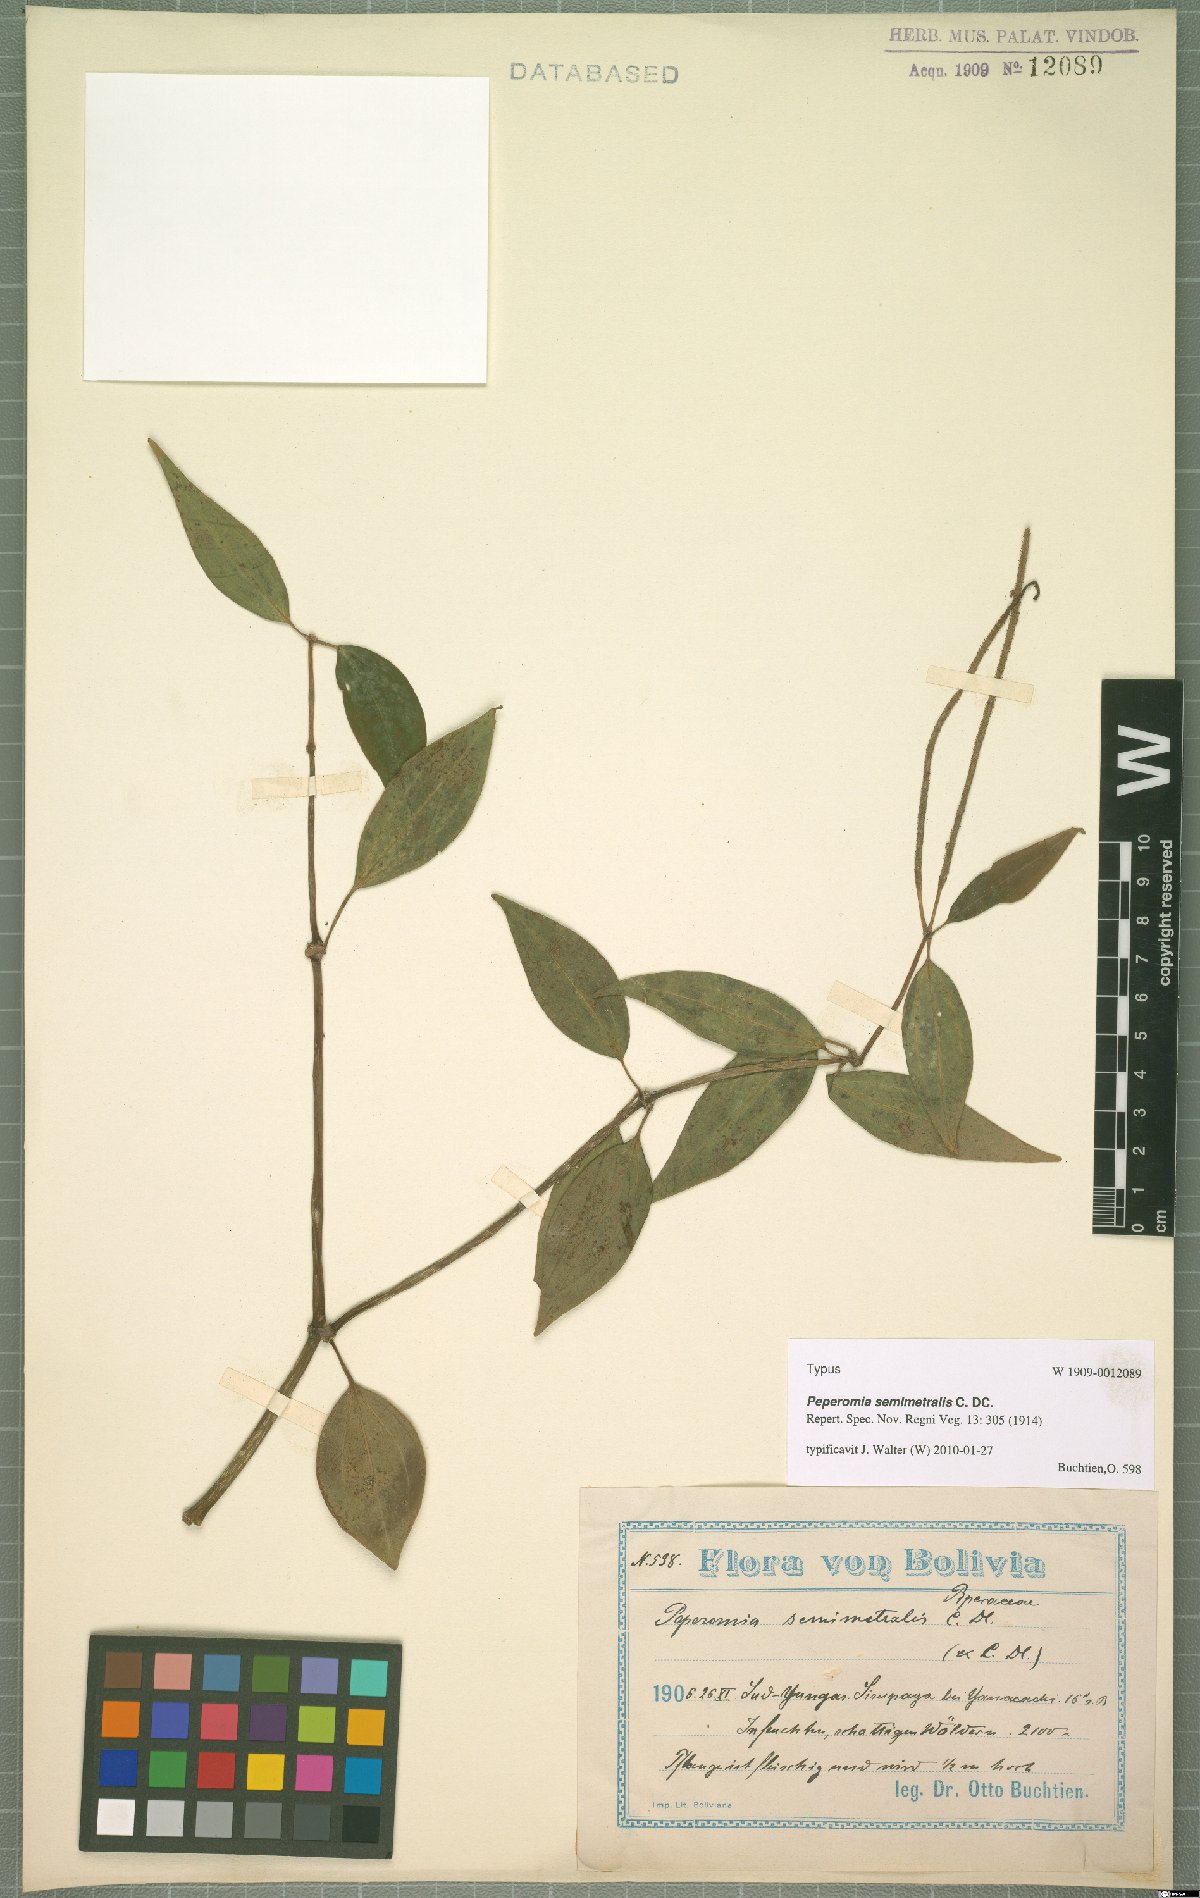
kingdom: Plantae
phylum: Tracheophyta
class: Magnoliopsida
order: Piperales
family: Piperaceae
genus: Peperomia
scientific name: Peperomia rhexiifolia
